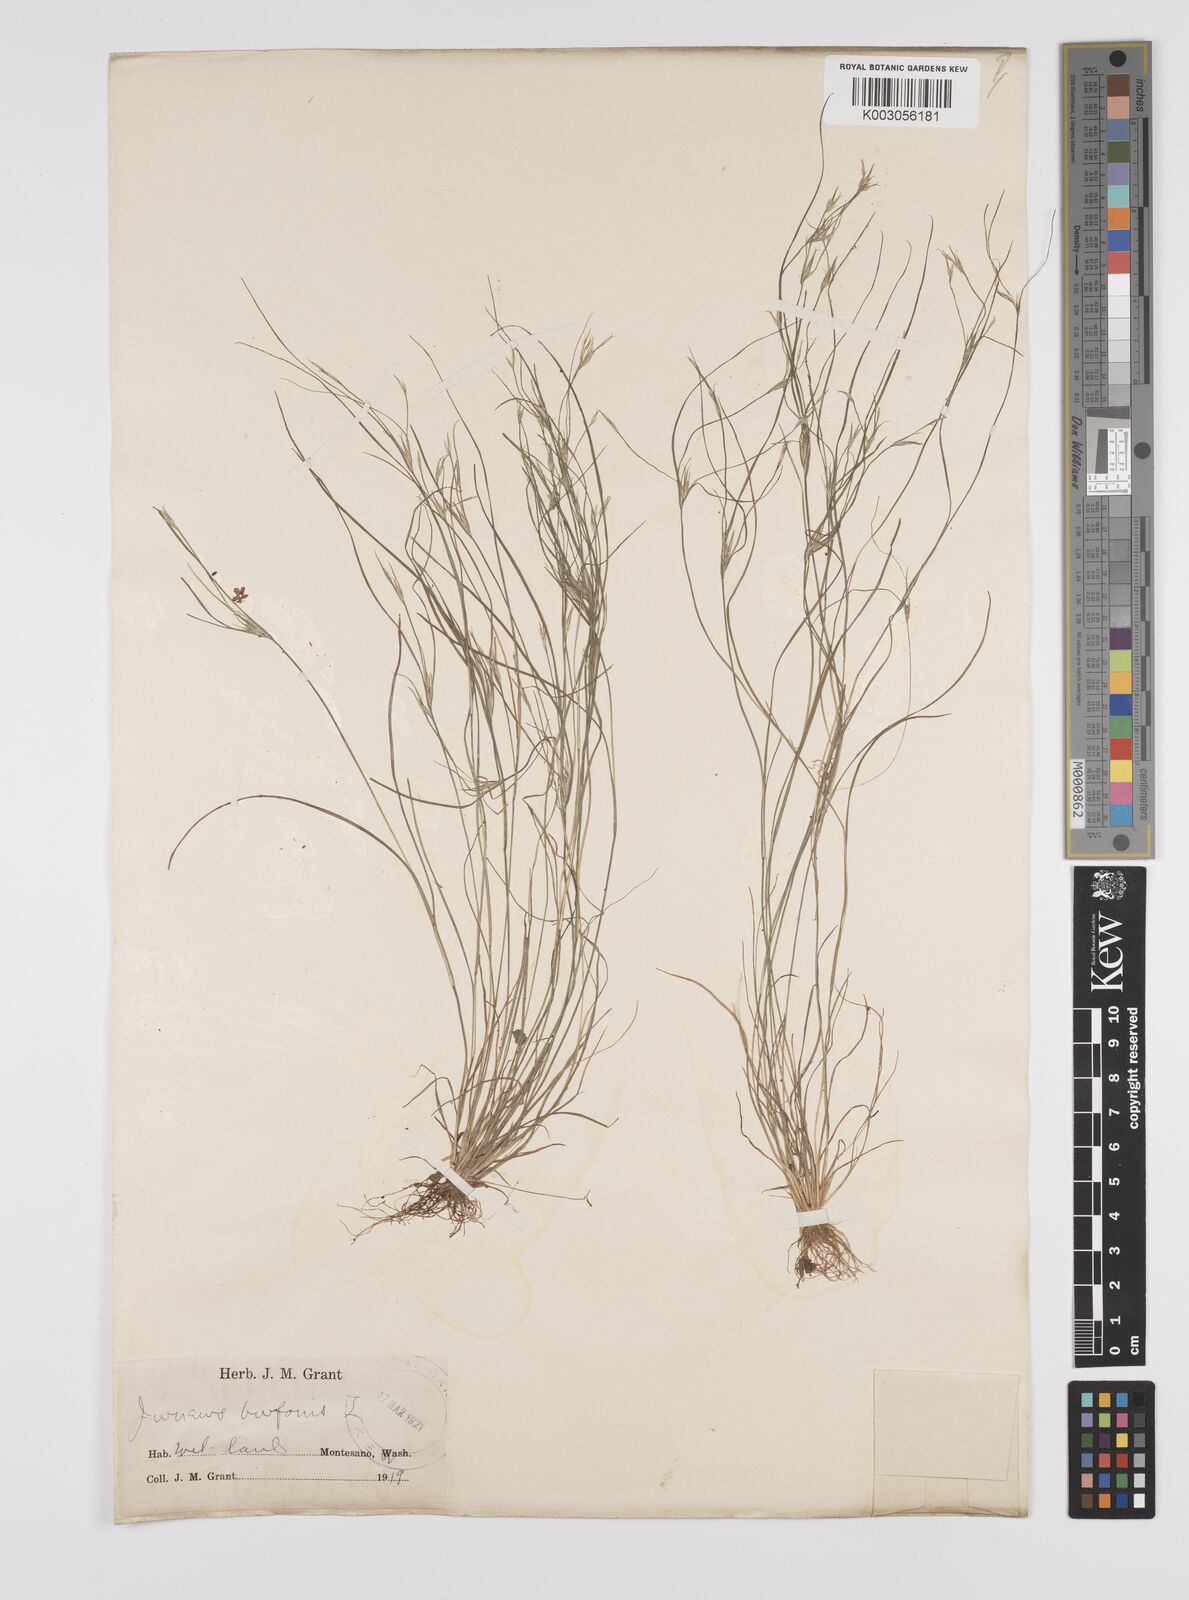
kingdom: Plantae
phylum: Tracheophyta
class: Liliopsida
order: Poales
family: Juncaceae
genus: Juncus
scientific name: Juncus bufonius
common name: Toad rush
